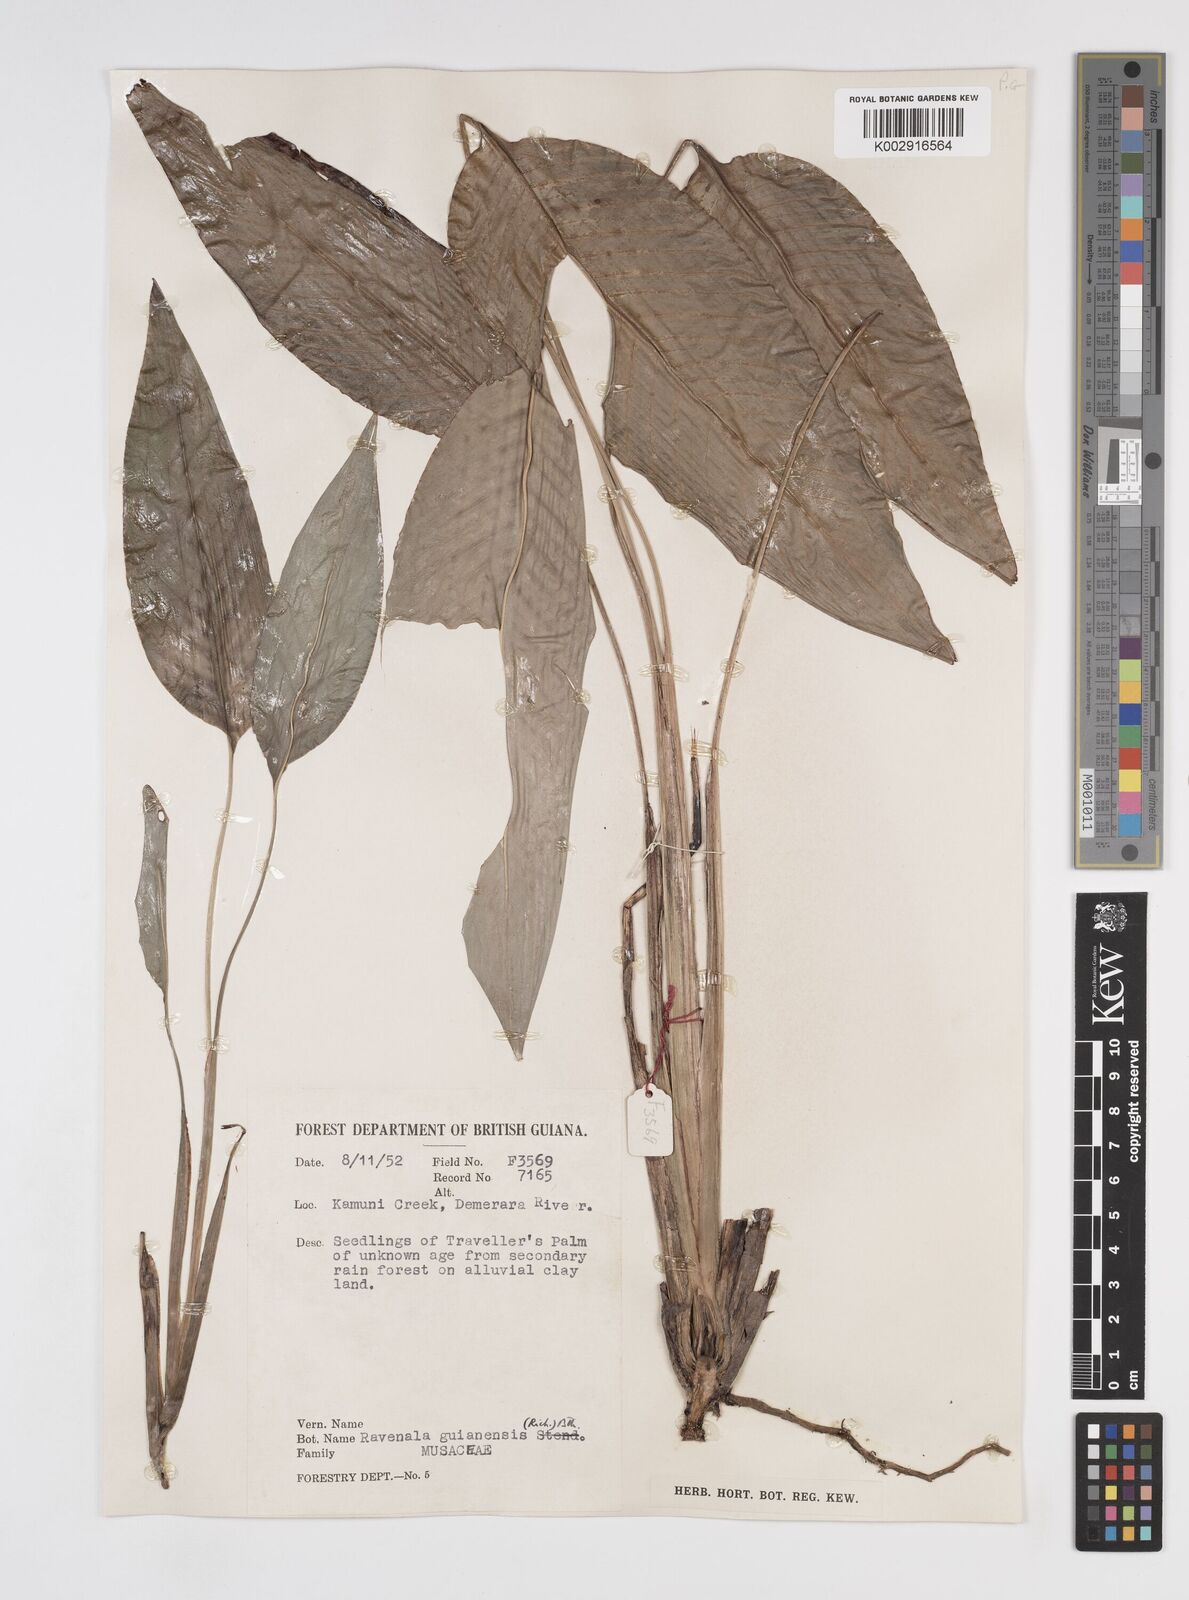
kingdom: Plantae
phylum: Tracheophyta
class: Liliopsida
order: Zingiberales
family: Strelitziaceae
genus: Phenakospermum
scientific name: Phenakospermum guyannense
